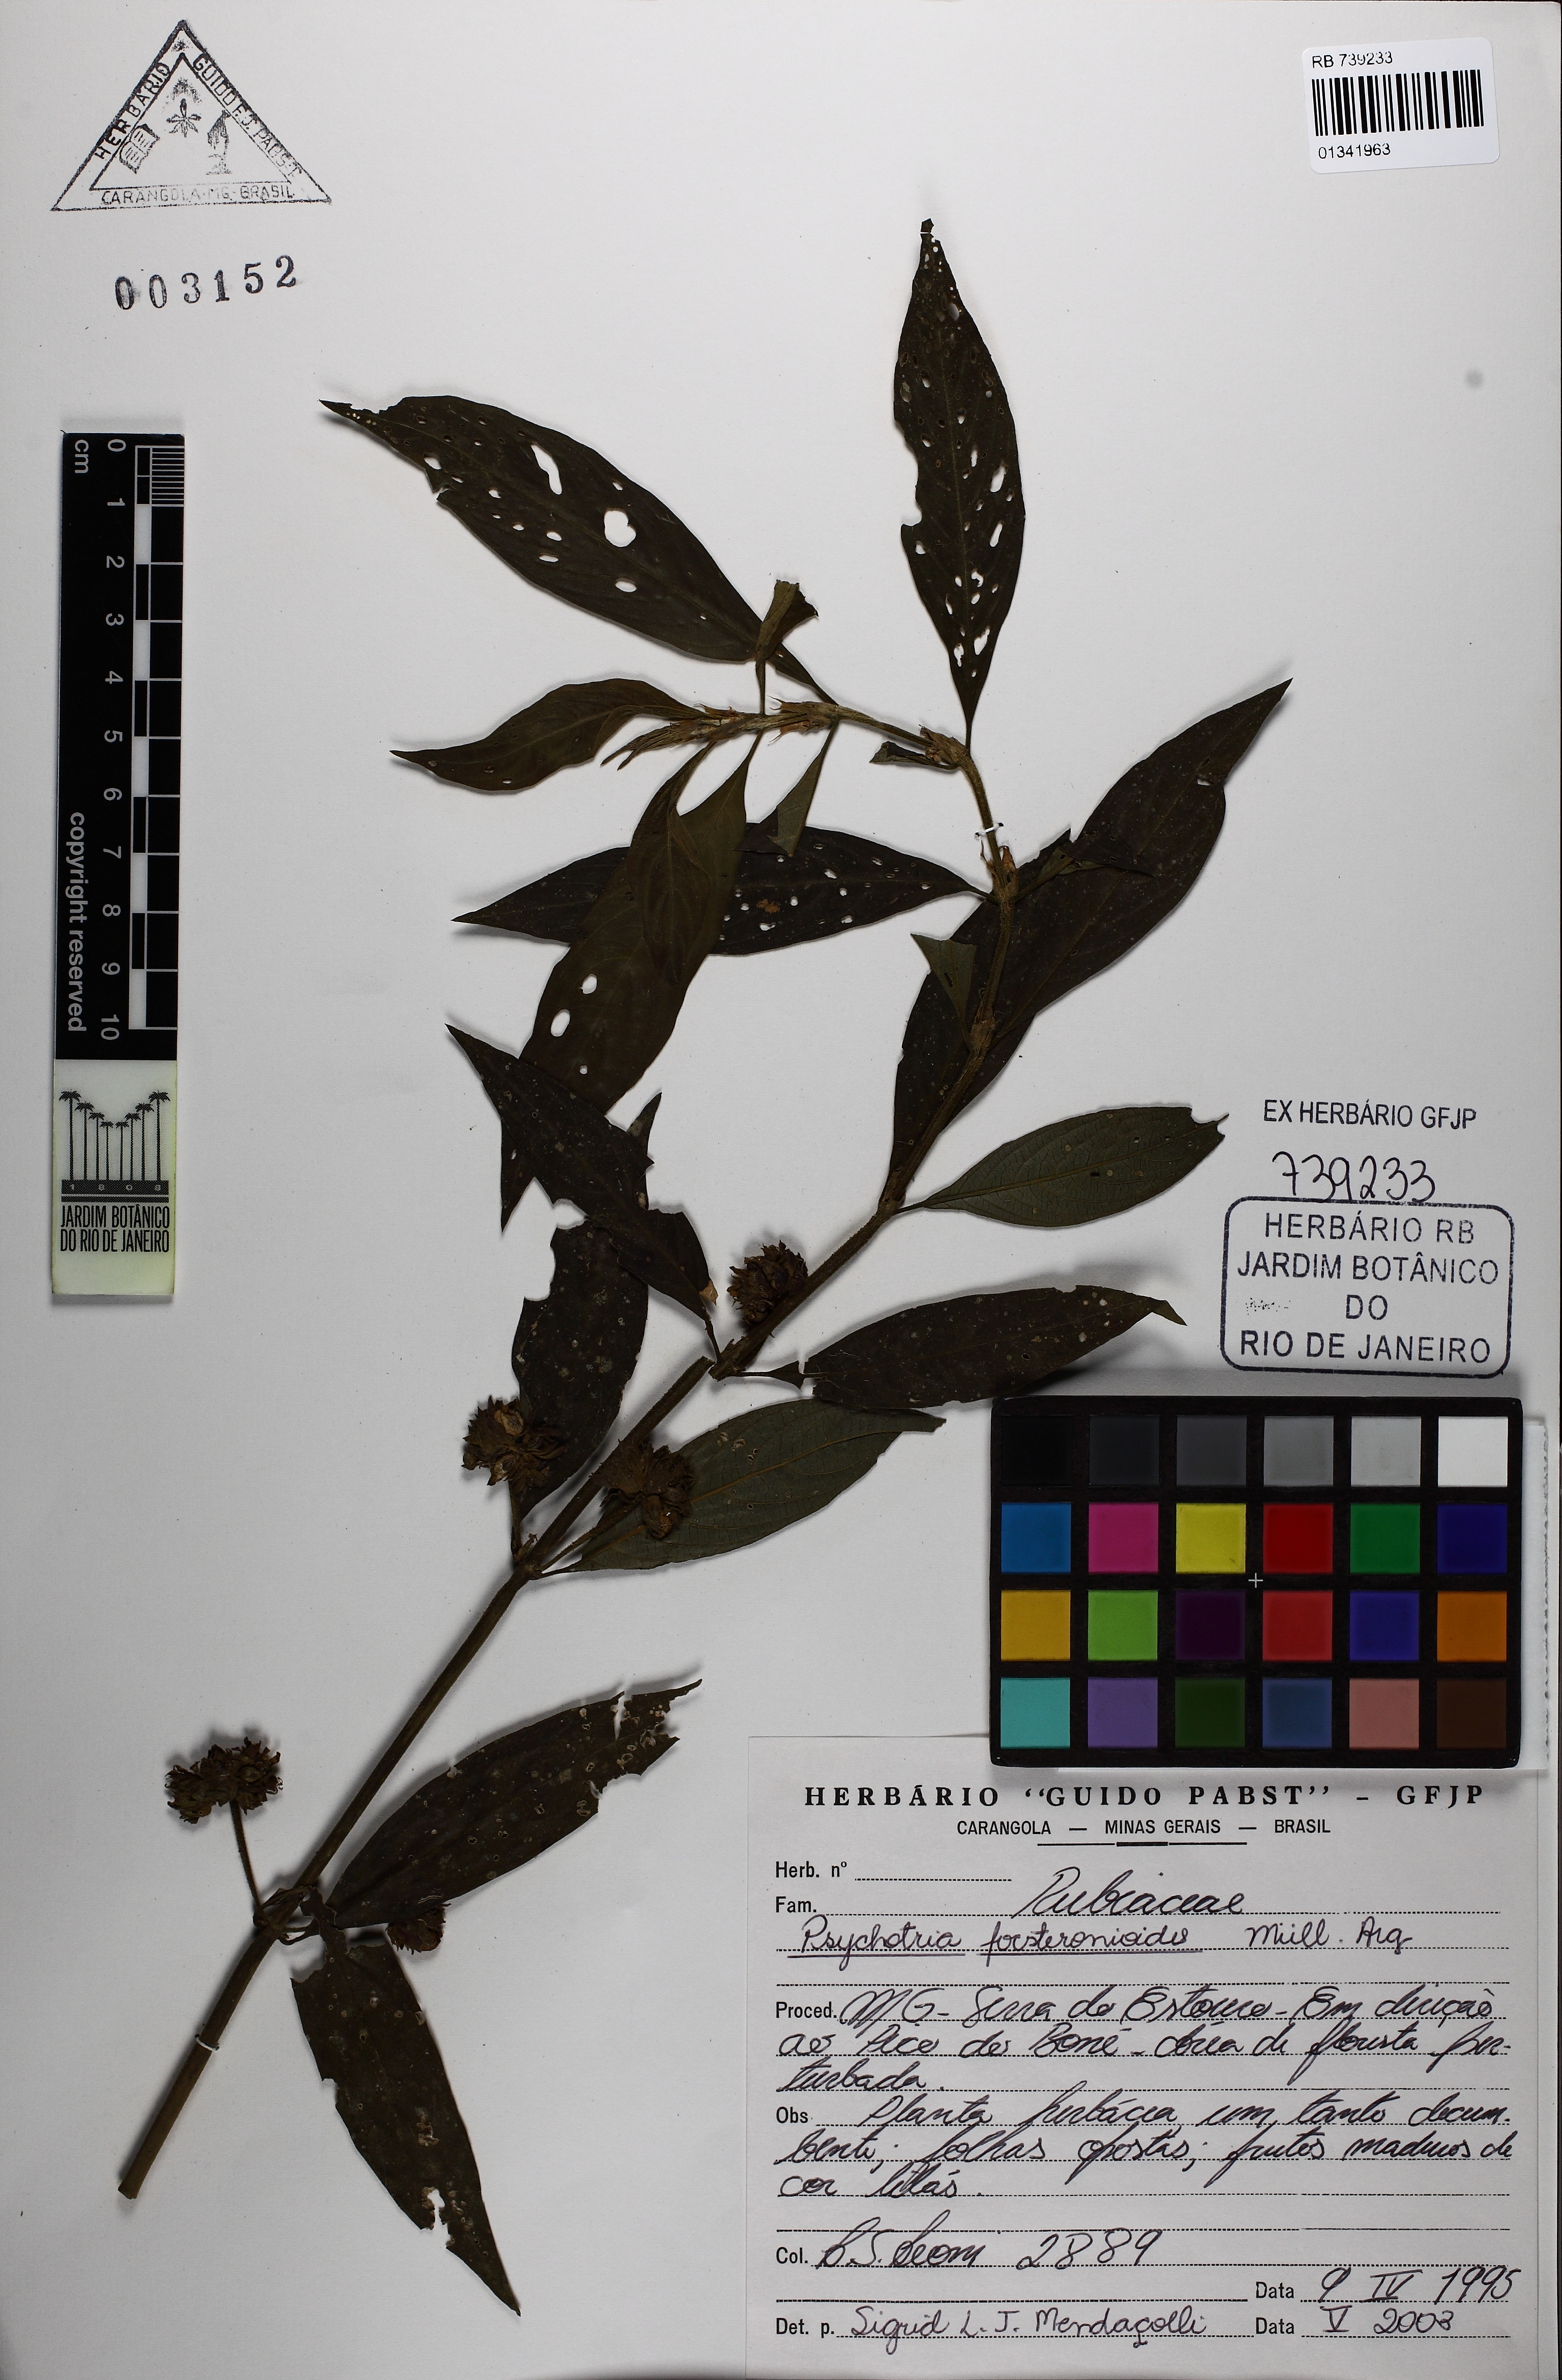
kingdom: Plantae
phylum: Tracheophyta
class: Magnoliopsida
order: Gentianales
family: Rubiaceae
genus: Palicourea
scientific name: Palicourea forsteronioides
